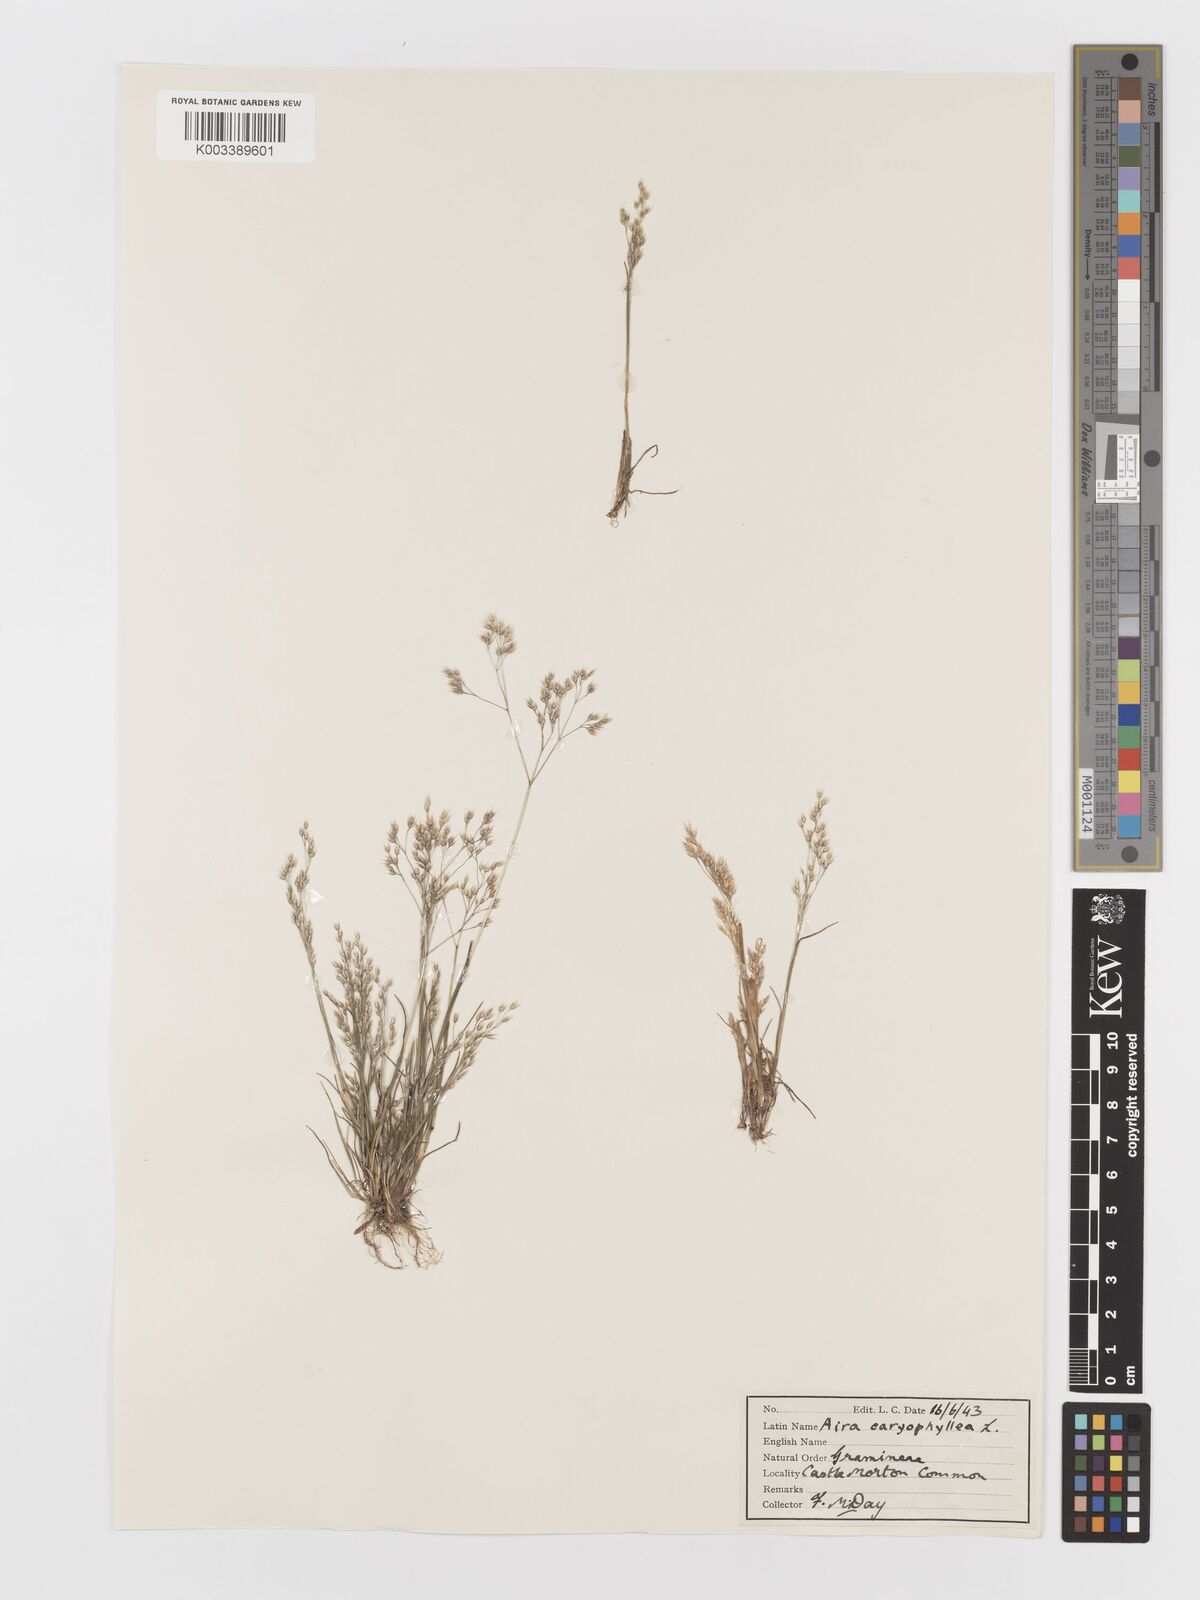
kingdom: Plantae
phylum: Tracheophyta
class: Liliopsida
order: Poales
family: Poaceae
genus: Aira
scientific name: Aira caryophyllea
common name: Silver hairgrass
